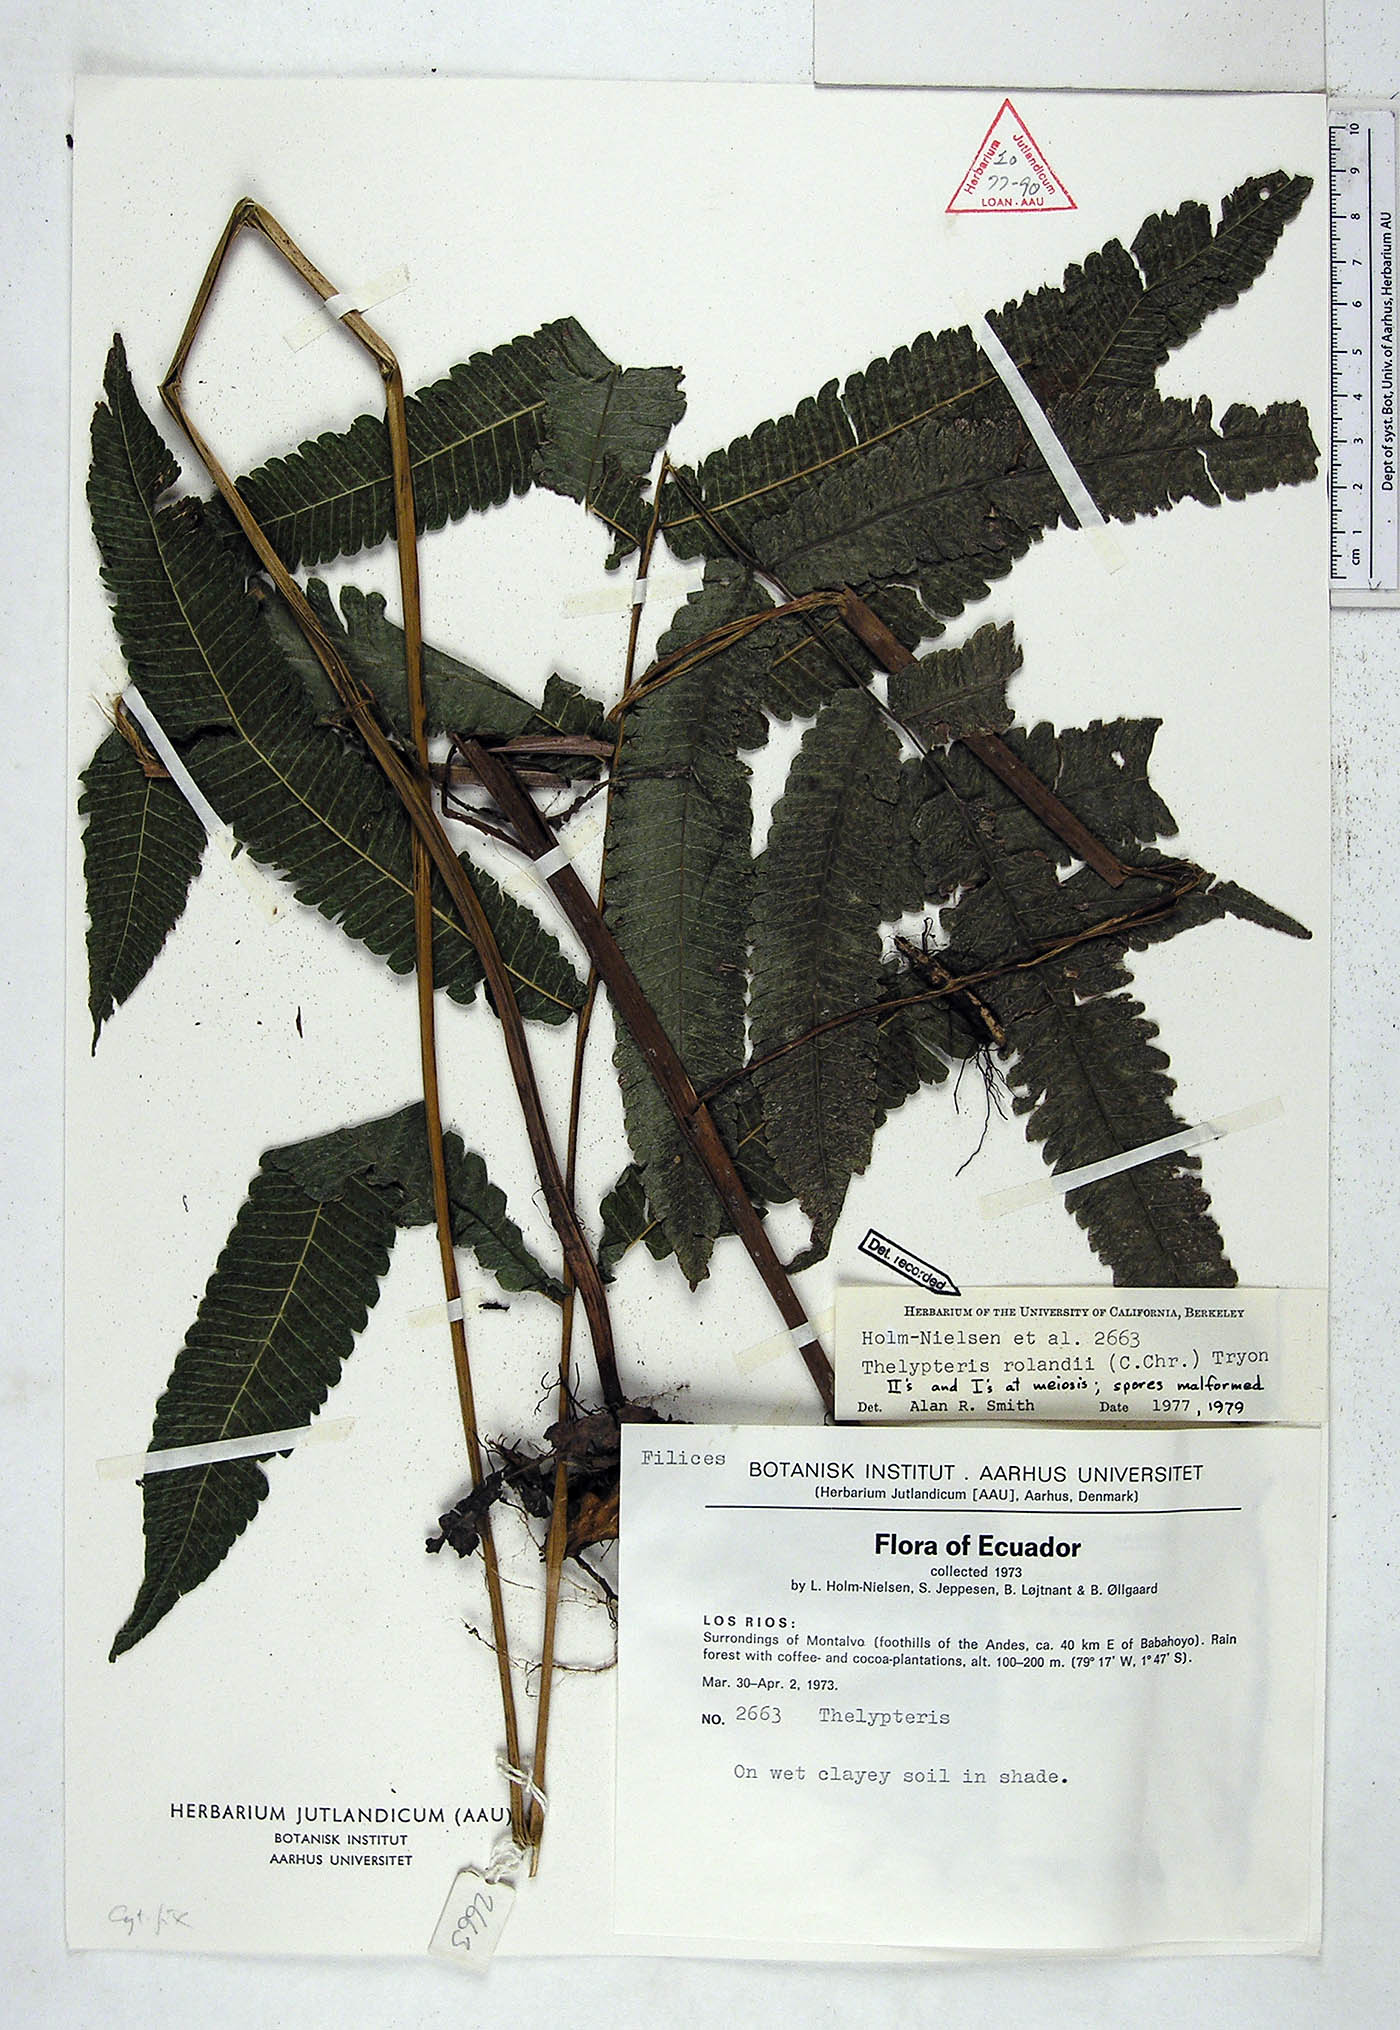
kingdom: Plantae
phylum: Tracheophyta
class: Polypodiopsida
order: Polypodiales
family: Thelypteridaceae
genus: Goniopteris
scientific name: Goniopteris rolandii
